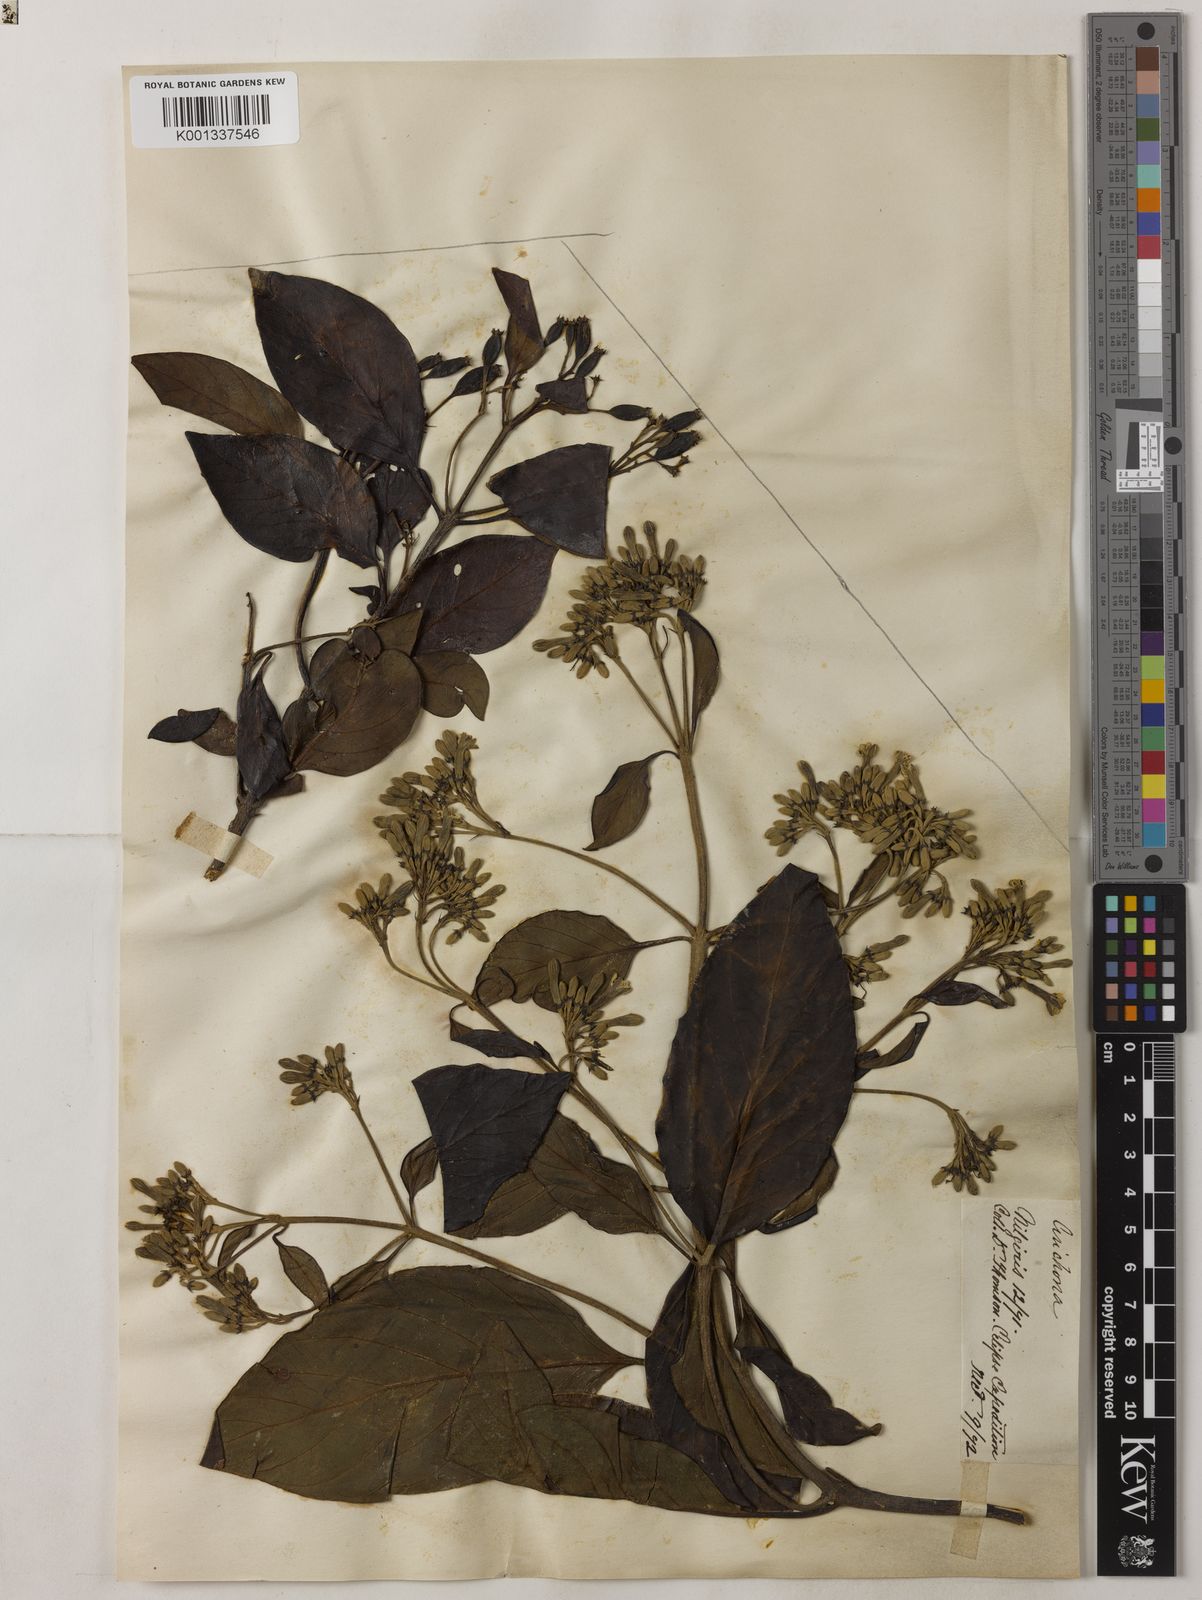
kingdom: Plantae
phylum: Tracheophyta
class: Magnoliopsida
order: Gentianales
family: Rubiaceae
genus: Cinchona
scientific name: Cinchona
